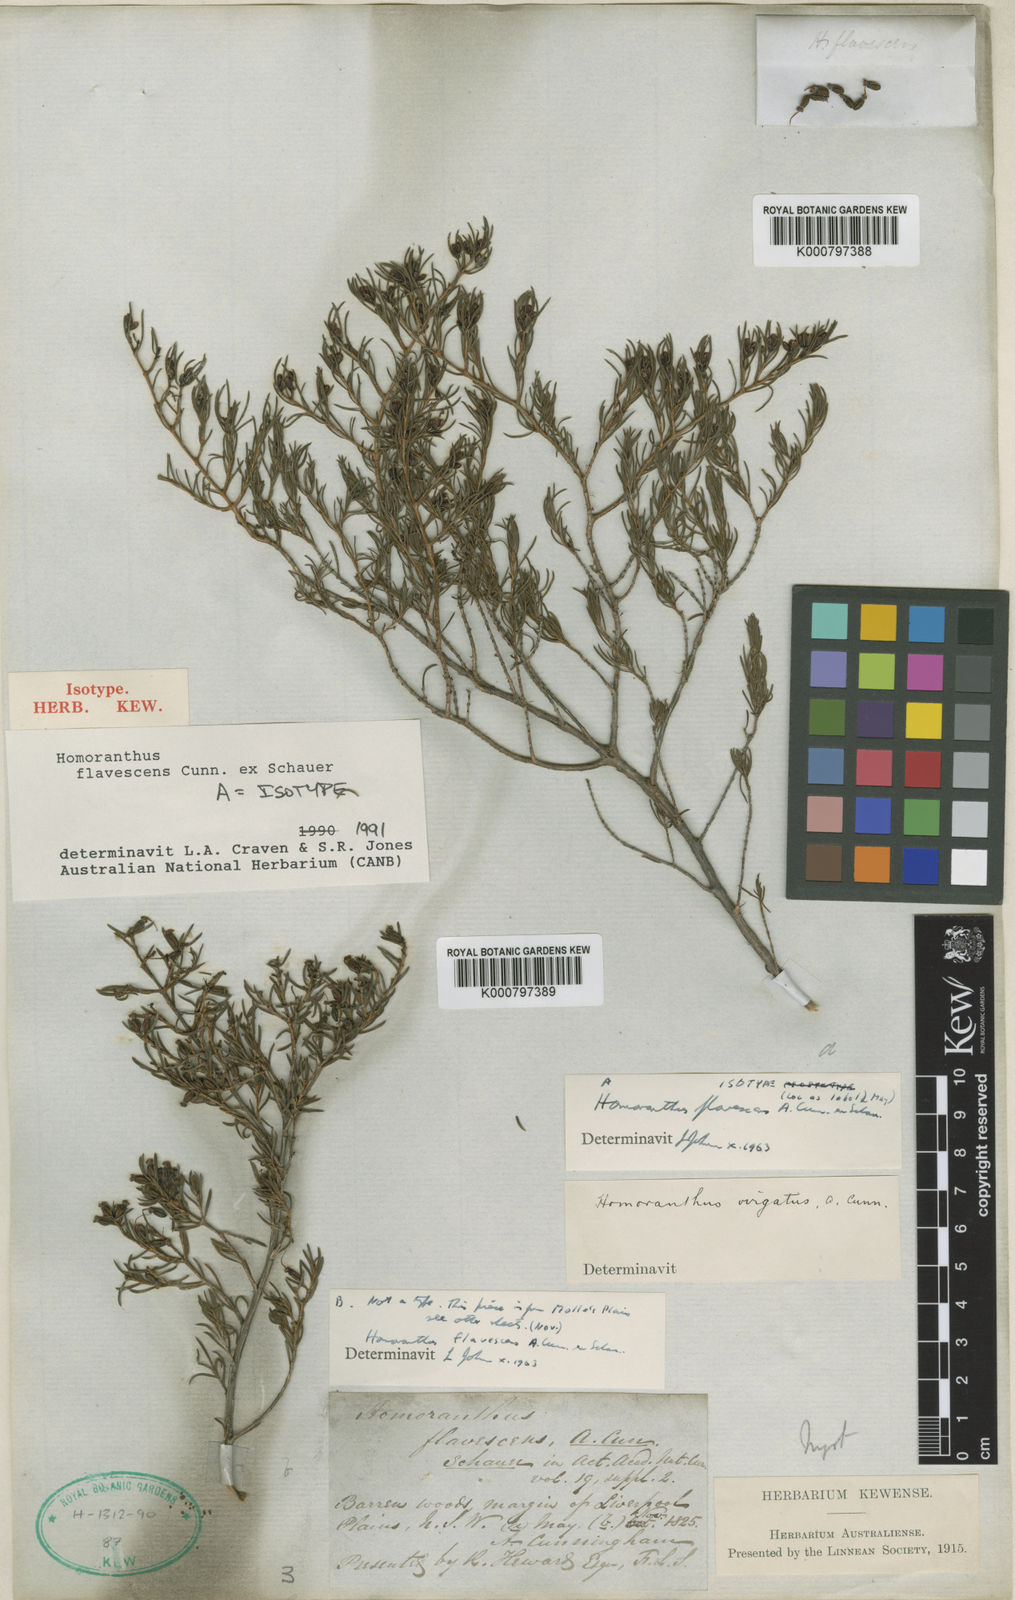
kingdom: Plantae
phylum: Tracheophyta
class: Magnoliopsida
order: Myrtales
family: Myrtaceae
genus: Homoranthus
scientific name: Homoranthus flavescens
